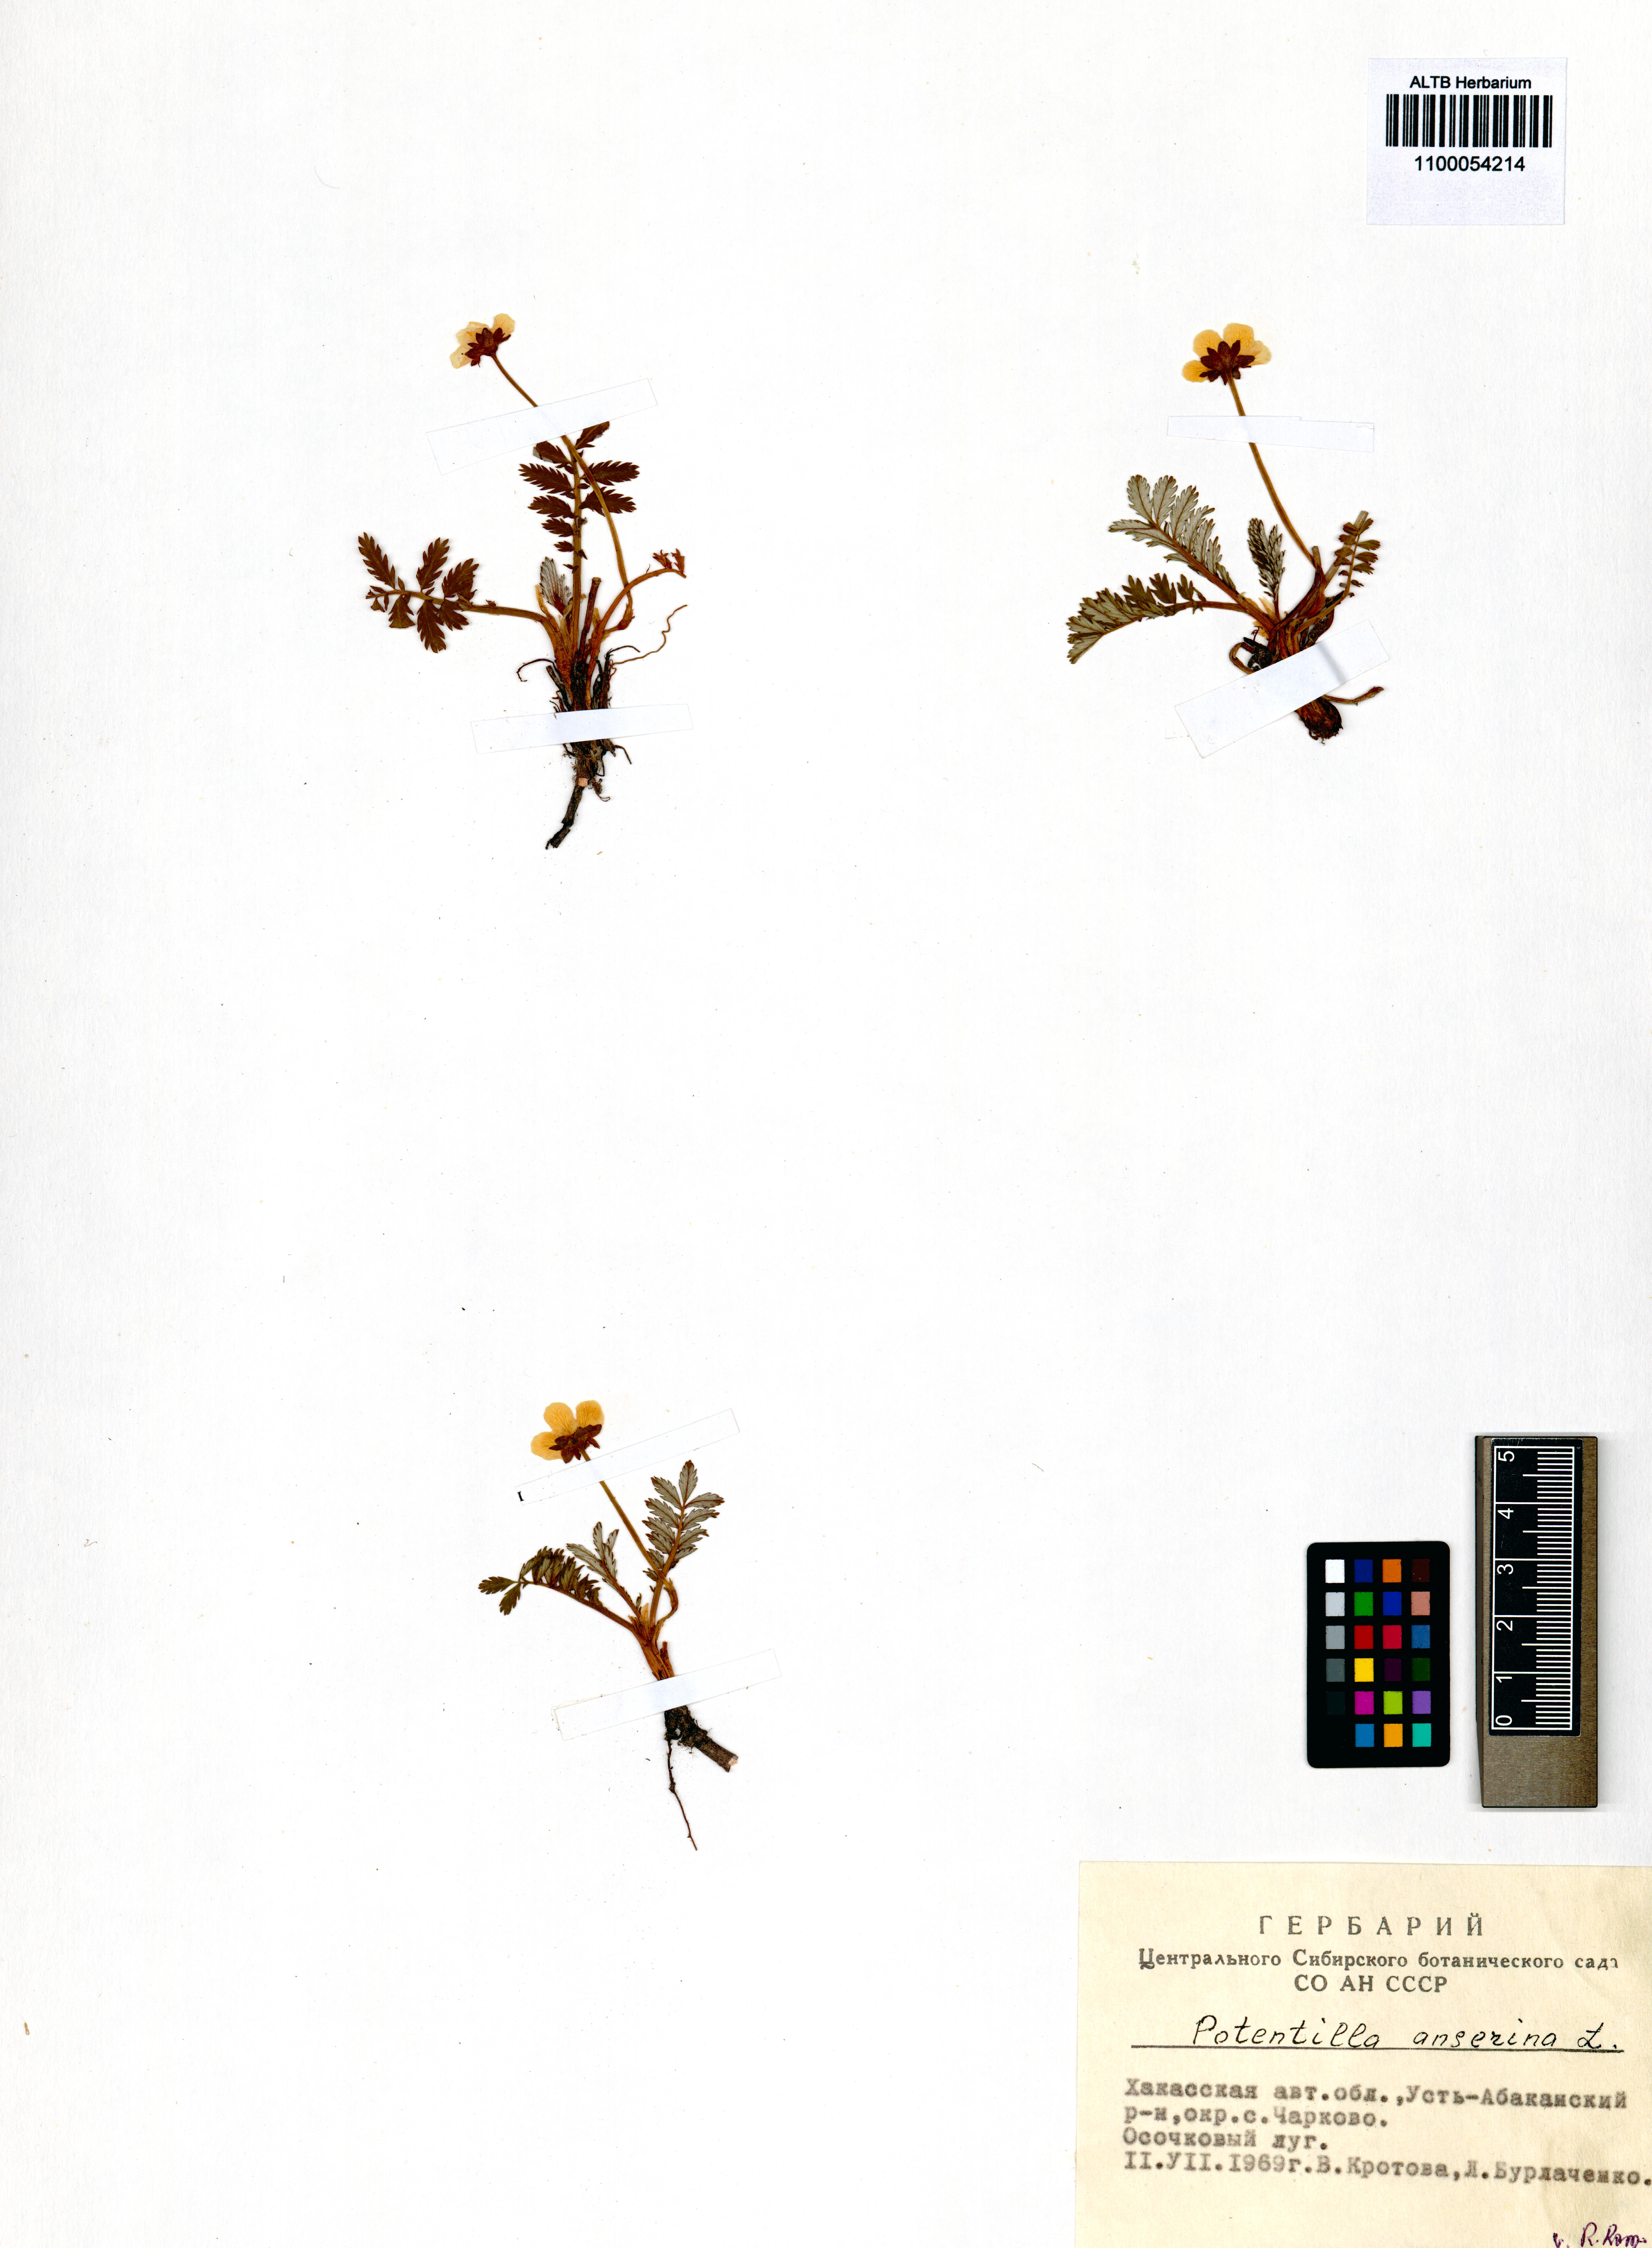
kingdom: Plantae
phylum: Tracheophyta
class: Magnoliopsida
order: Rosales
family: Rosaceae
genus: Argentina
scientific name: Argentina anserina
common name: Common silverweed
